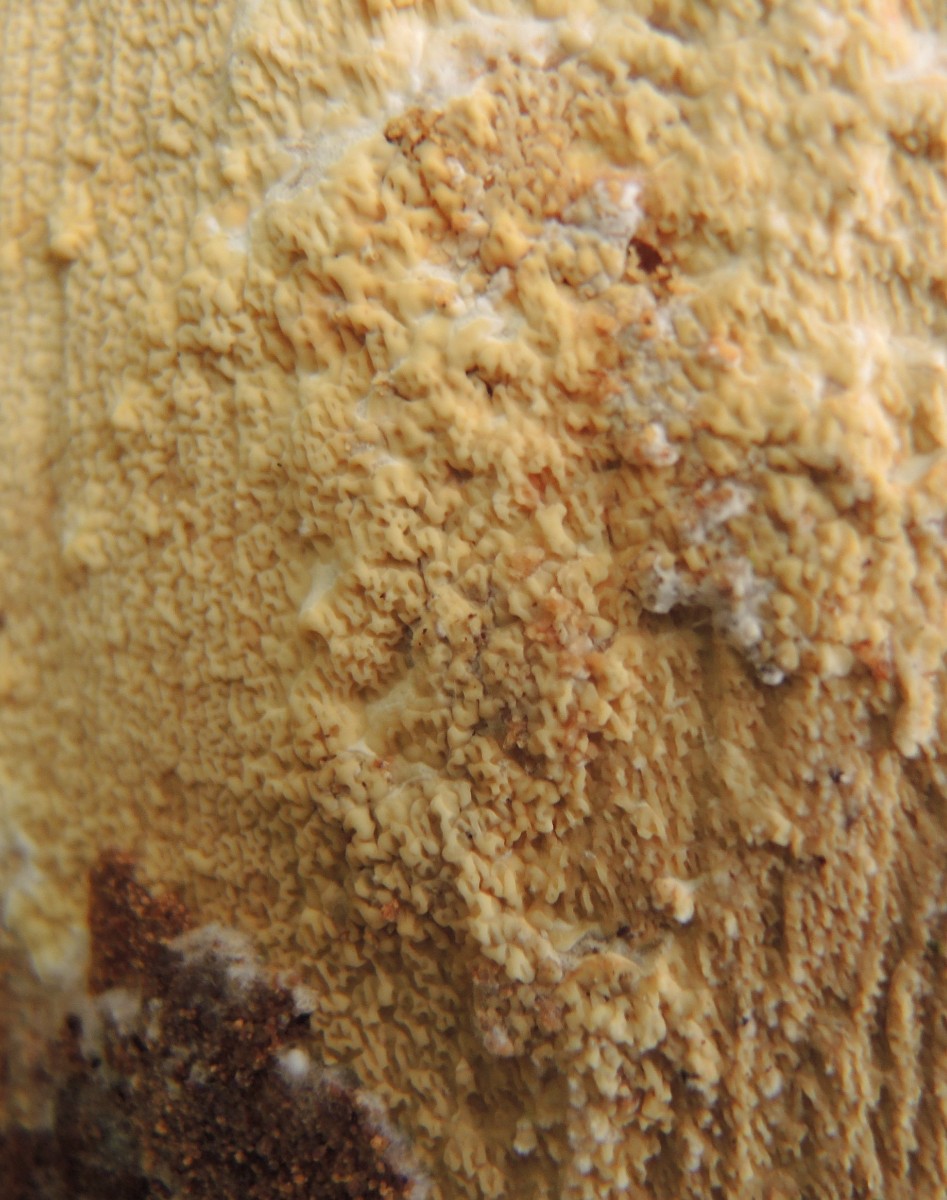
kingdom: Fungi
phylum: Basidiomycota
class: Agaricomycetes
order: Boletales
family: Hygrophoropsidaceae
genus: Leucogyrophana
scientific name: Leucogyrophana sororia
